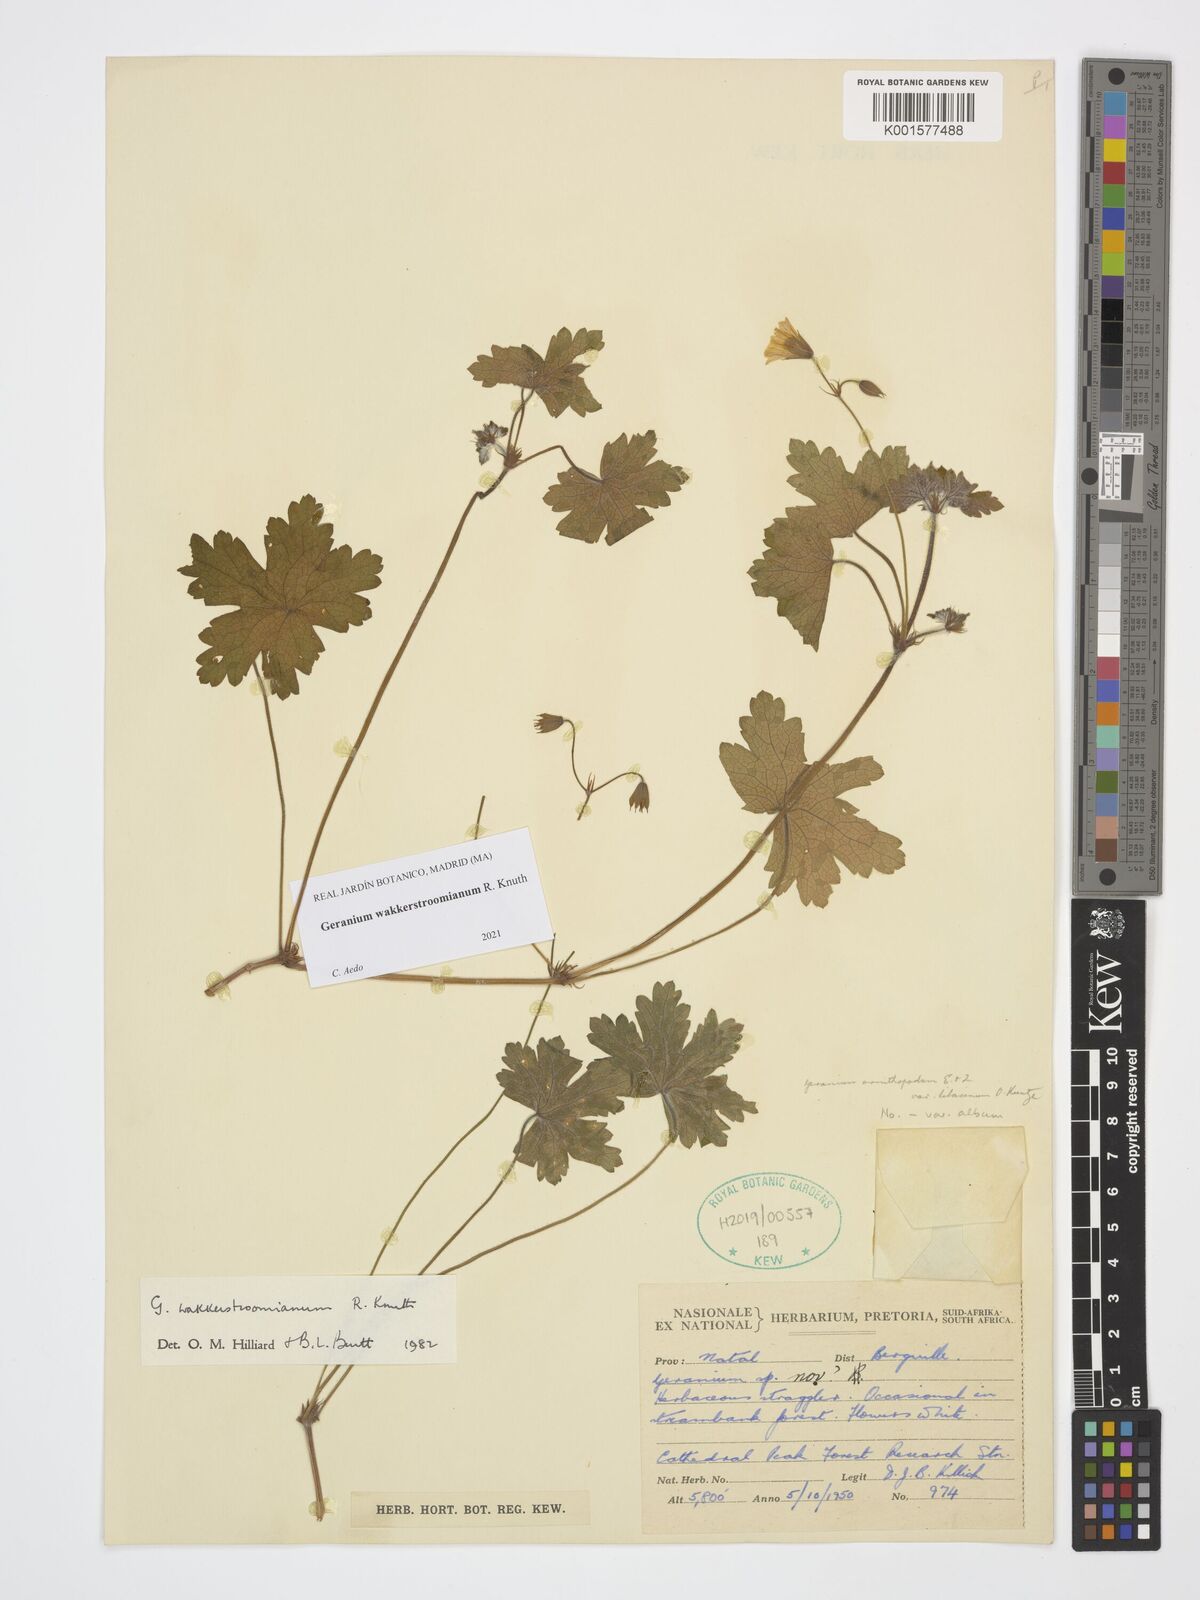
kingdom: Plantae
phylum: Tracheophyta
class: Magnoliopsida
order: Geraniales
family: Geraniaceae
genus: Geranium
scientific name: Geranium wakkerstroomianum
